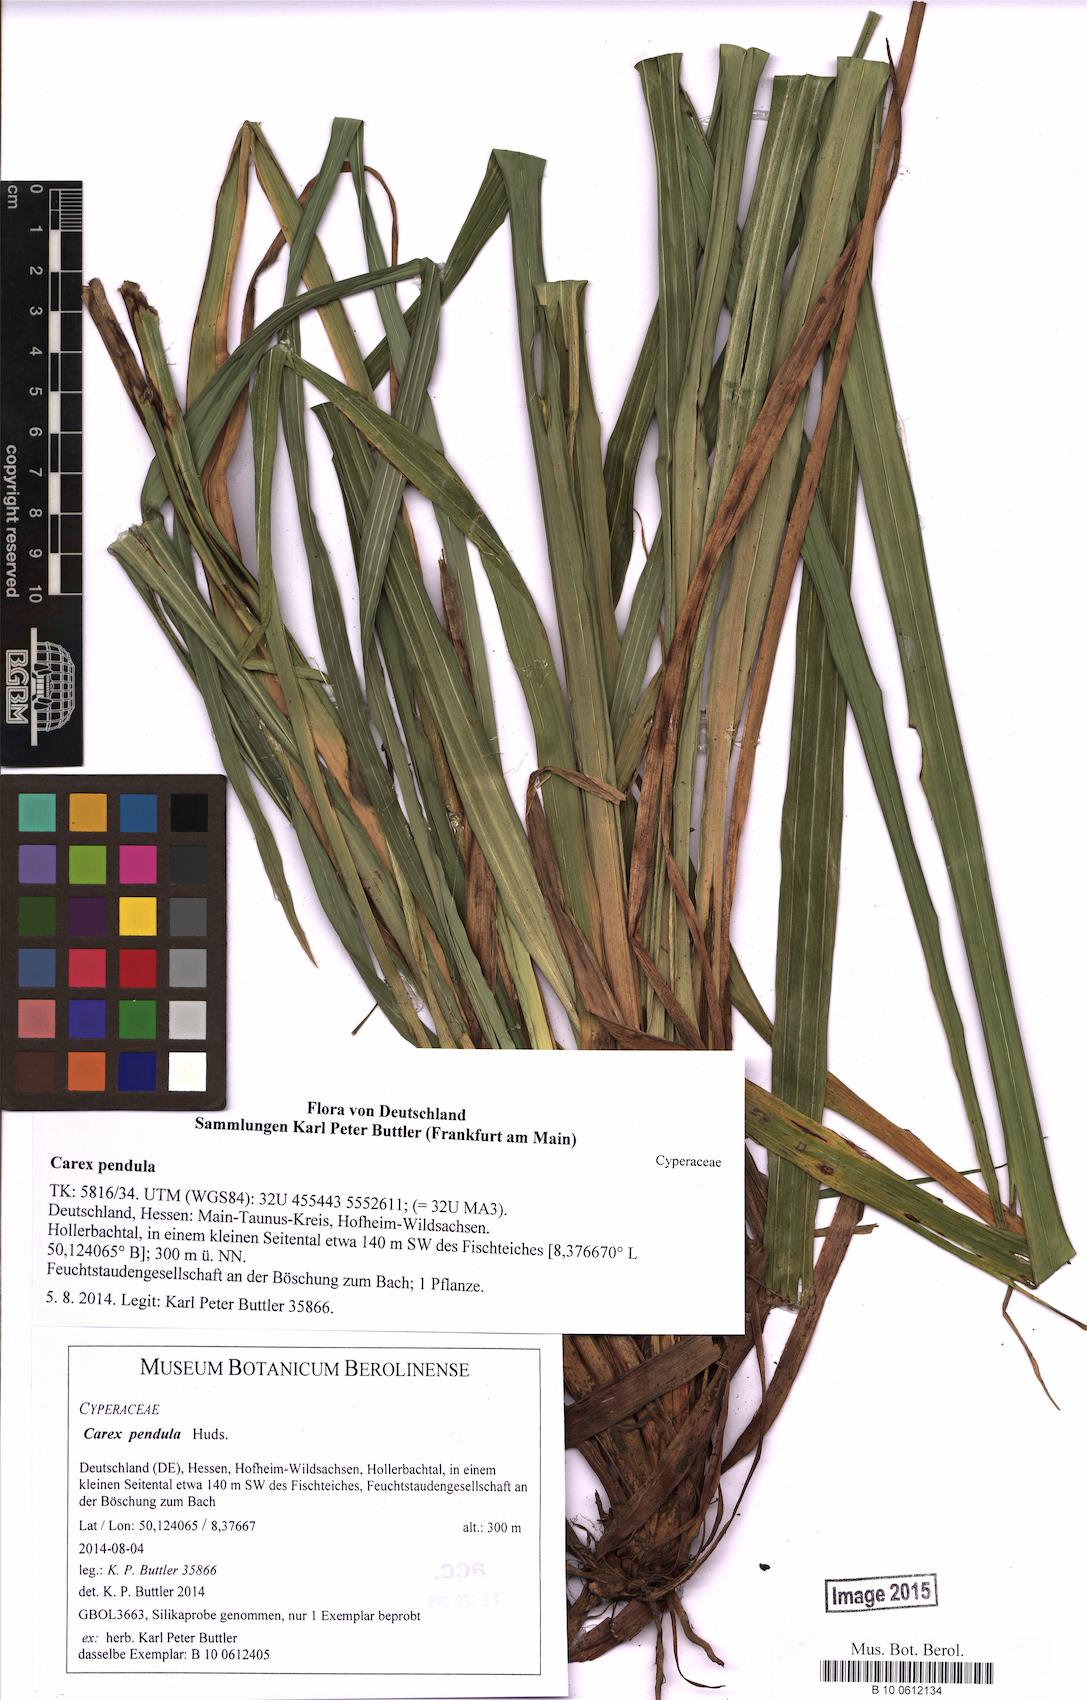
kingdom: Plantae
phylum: Tracheophyta
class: Liliopsida
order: Poales
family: Cyperaceae
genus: Carex
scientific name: Carex pendula
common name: Pendulous sedge
